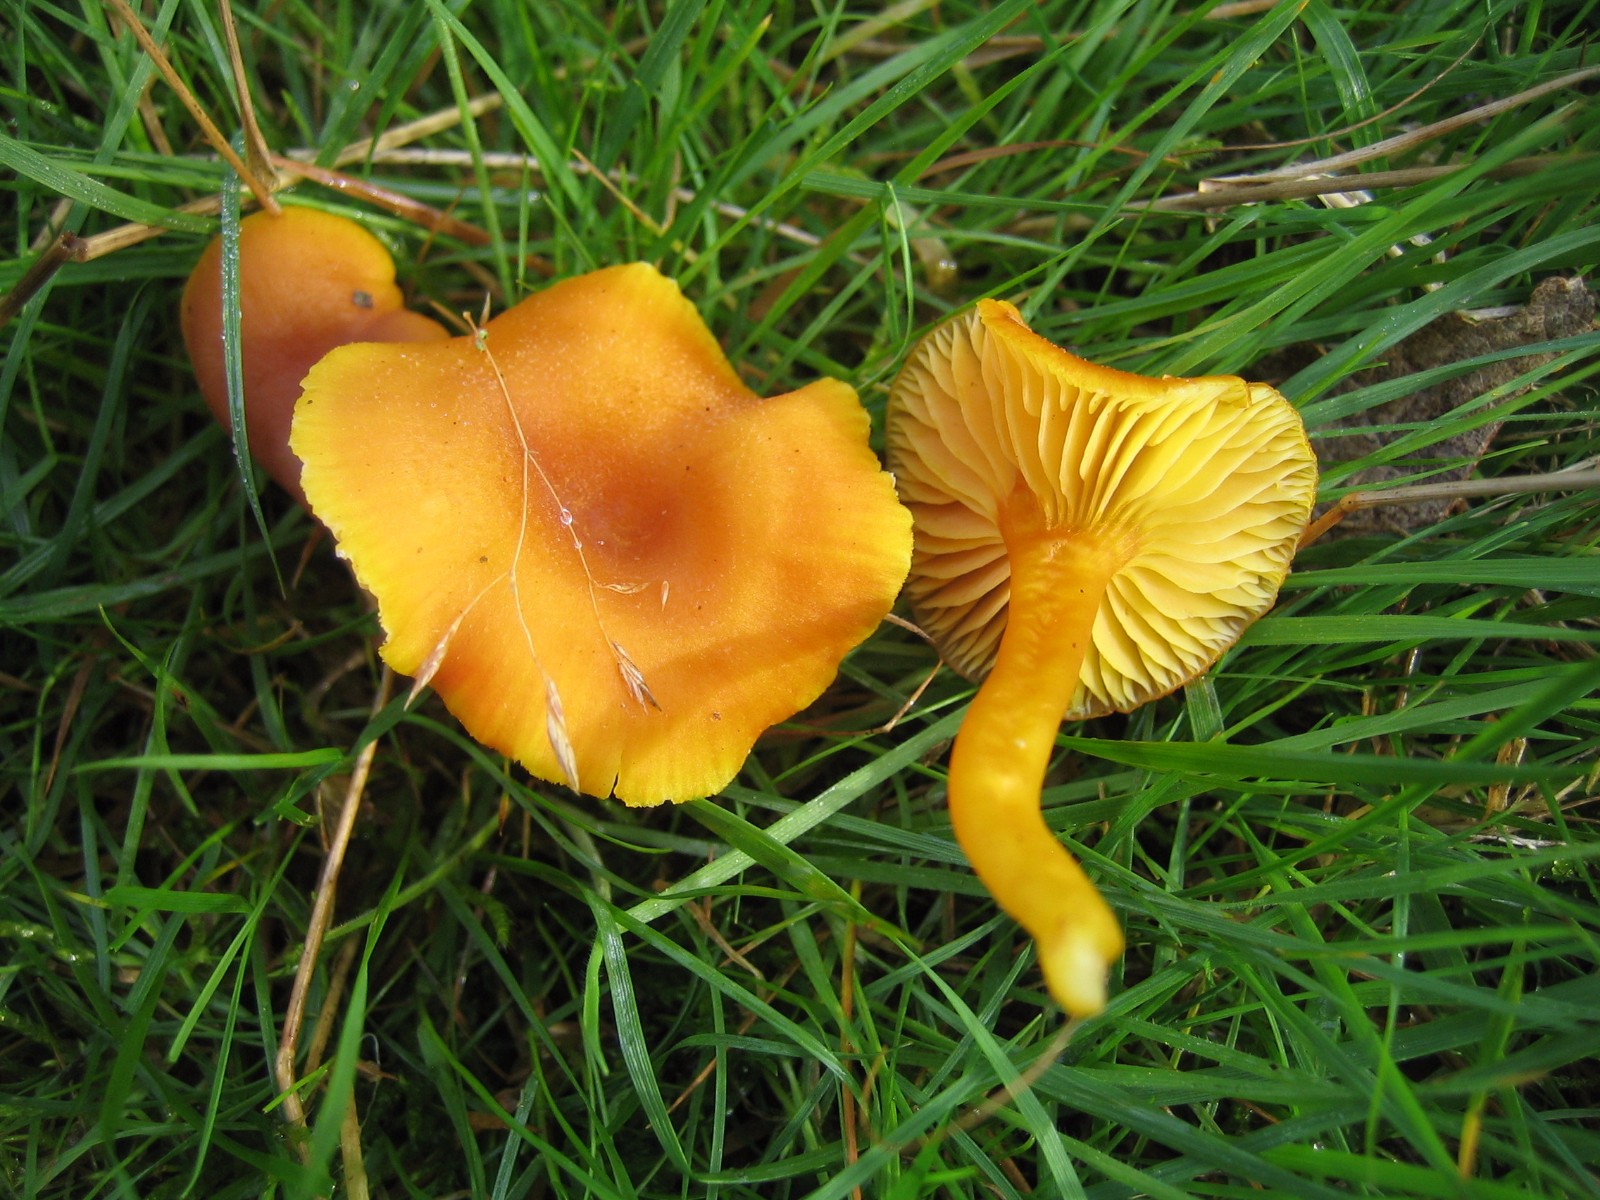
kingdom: Fungi
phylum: Basidiomycota
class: Agaricomycetes
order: Agaricales
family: Hygrophoraceae
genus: Hygrocybe
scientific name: Hygrocybe miniata
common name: mønje-vokshat
